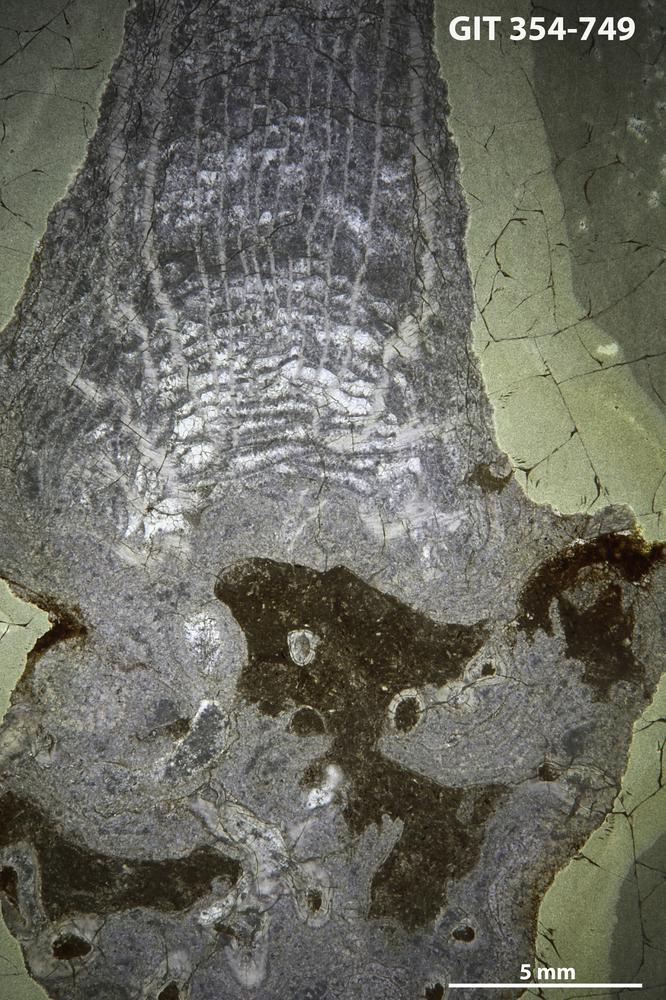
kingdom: Animalia
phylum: Porifera
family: Stromatoporellidae
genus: Simplexodictyon
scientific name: Simplexodictyon
